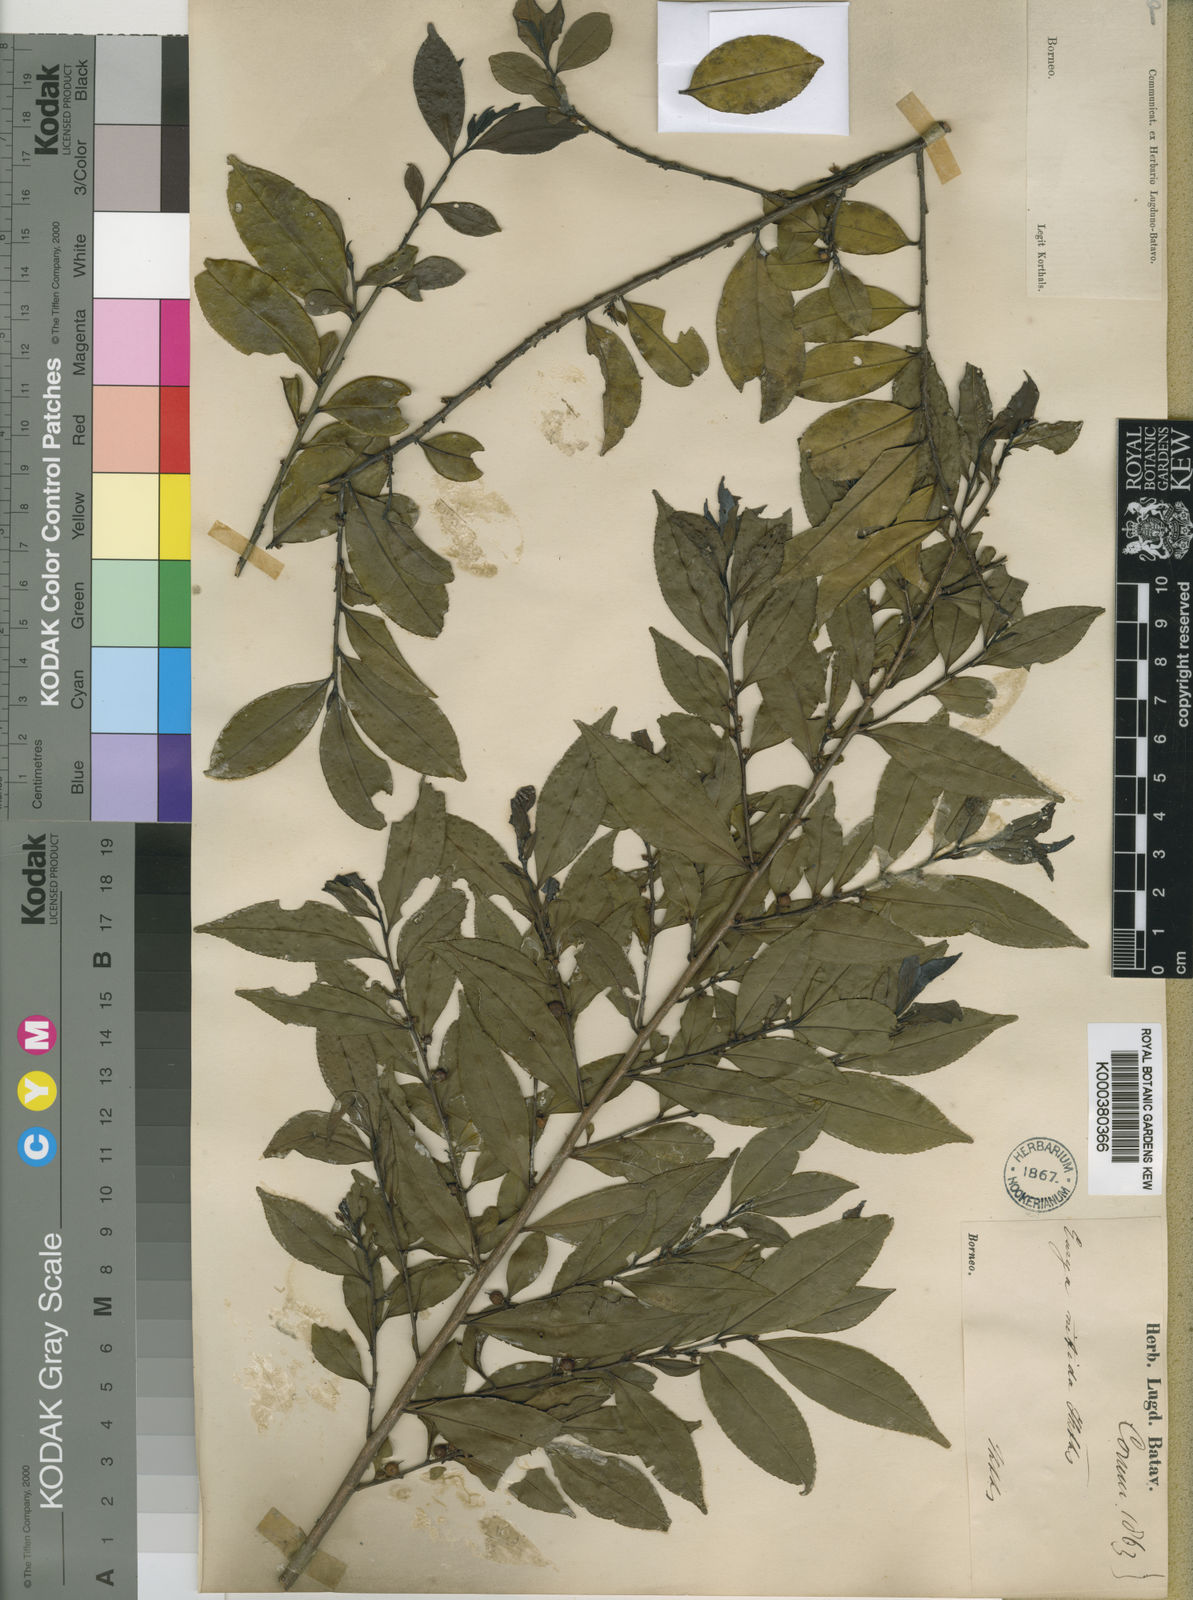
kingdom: Plantae
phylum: Tracheophyta
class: Magnoliopsida
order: Ericales
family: Pentaphylacaceae
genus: Eurya
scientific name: Eurya nitida
